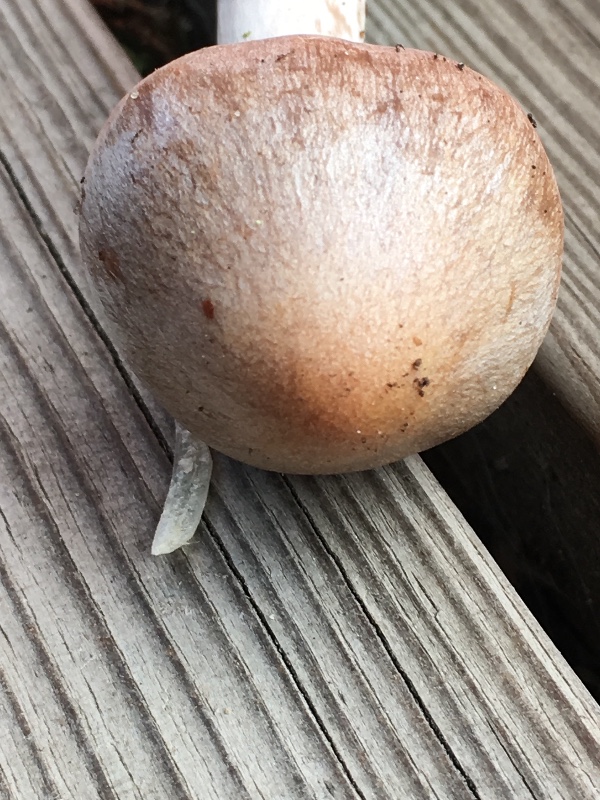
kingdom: Fungi
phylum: Basidiomycota
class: Agaricomycetes
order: Agaricales
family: Cortinariaceae
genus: Cortinarius
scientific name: Cortinarius spilomeus
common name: rødfnugget slørhat
